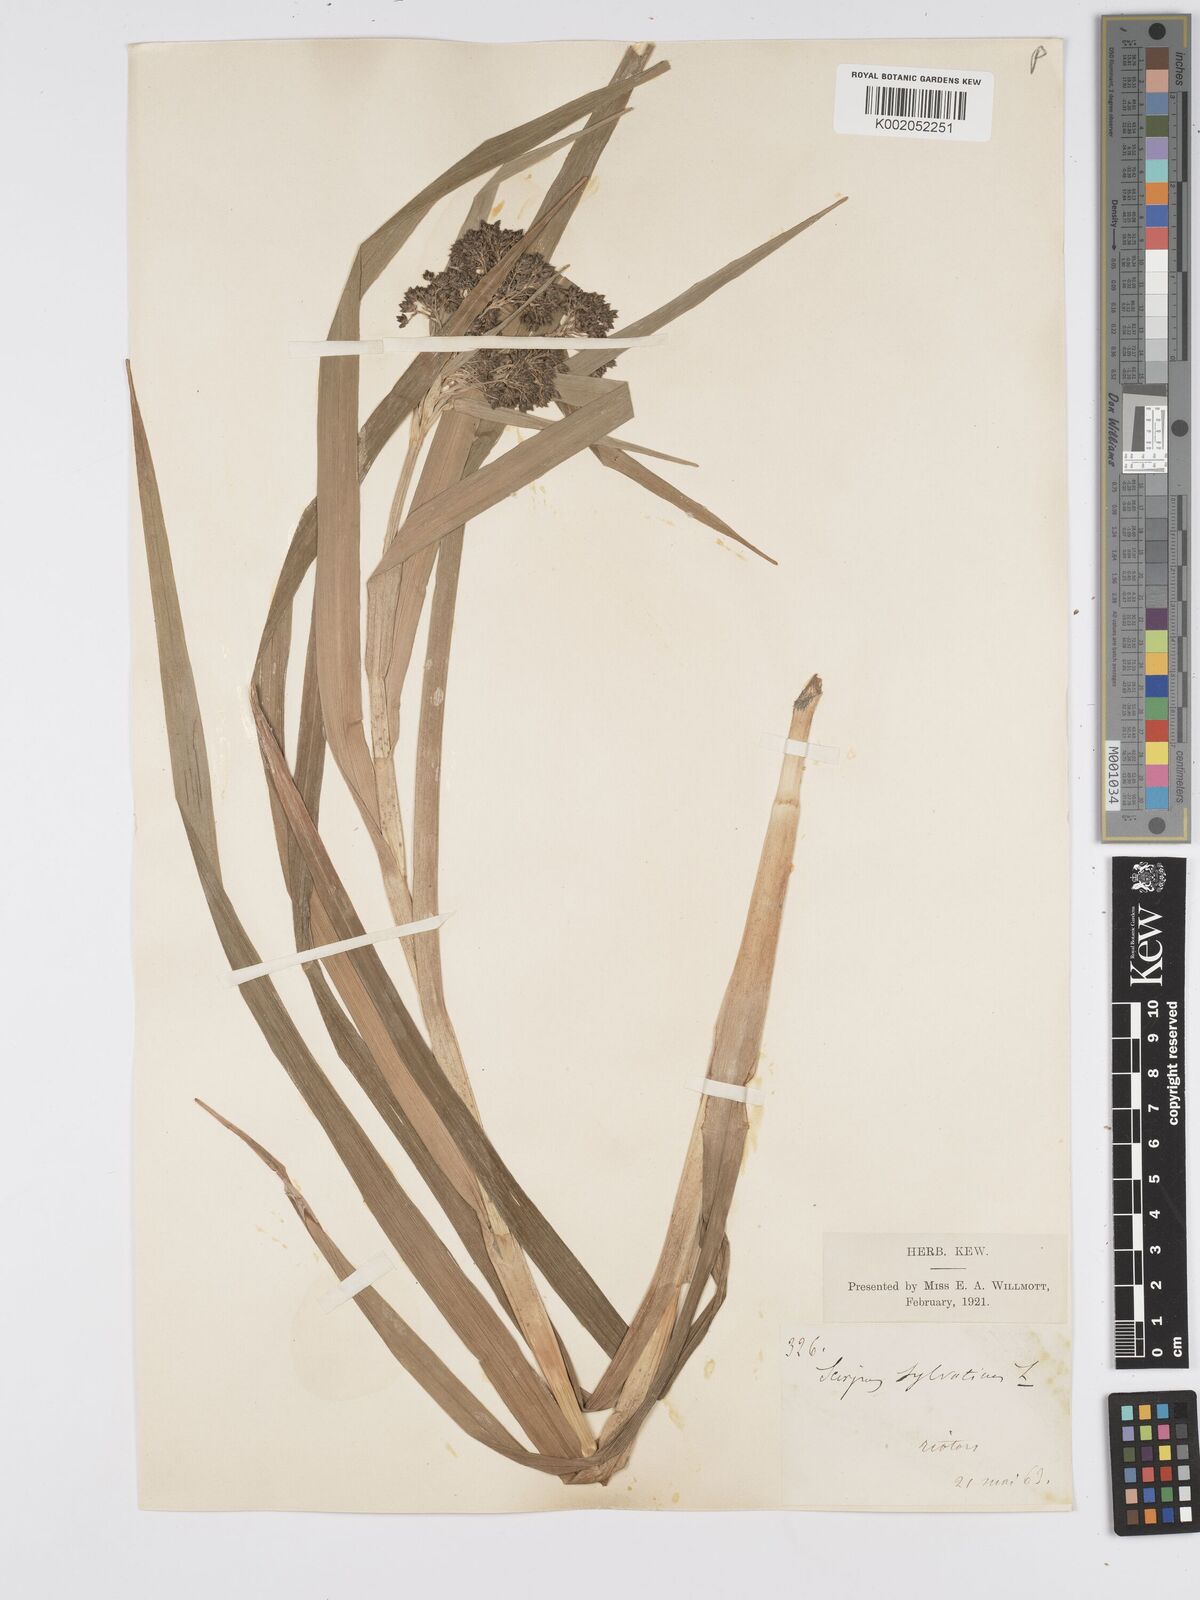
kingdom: Plantae
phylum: Tracheophyta
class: Liliopsida
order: Poales
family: Cyperaceae
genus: Scirpus
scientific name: Scirpus sylvaticus
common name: Wood club-rush
